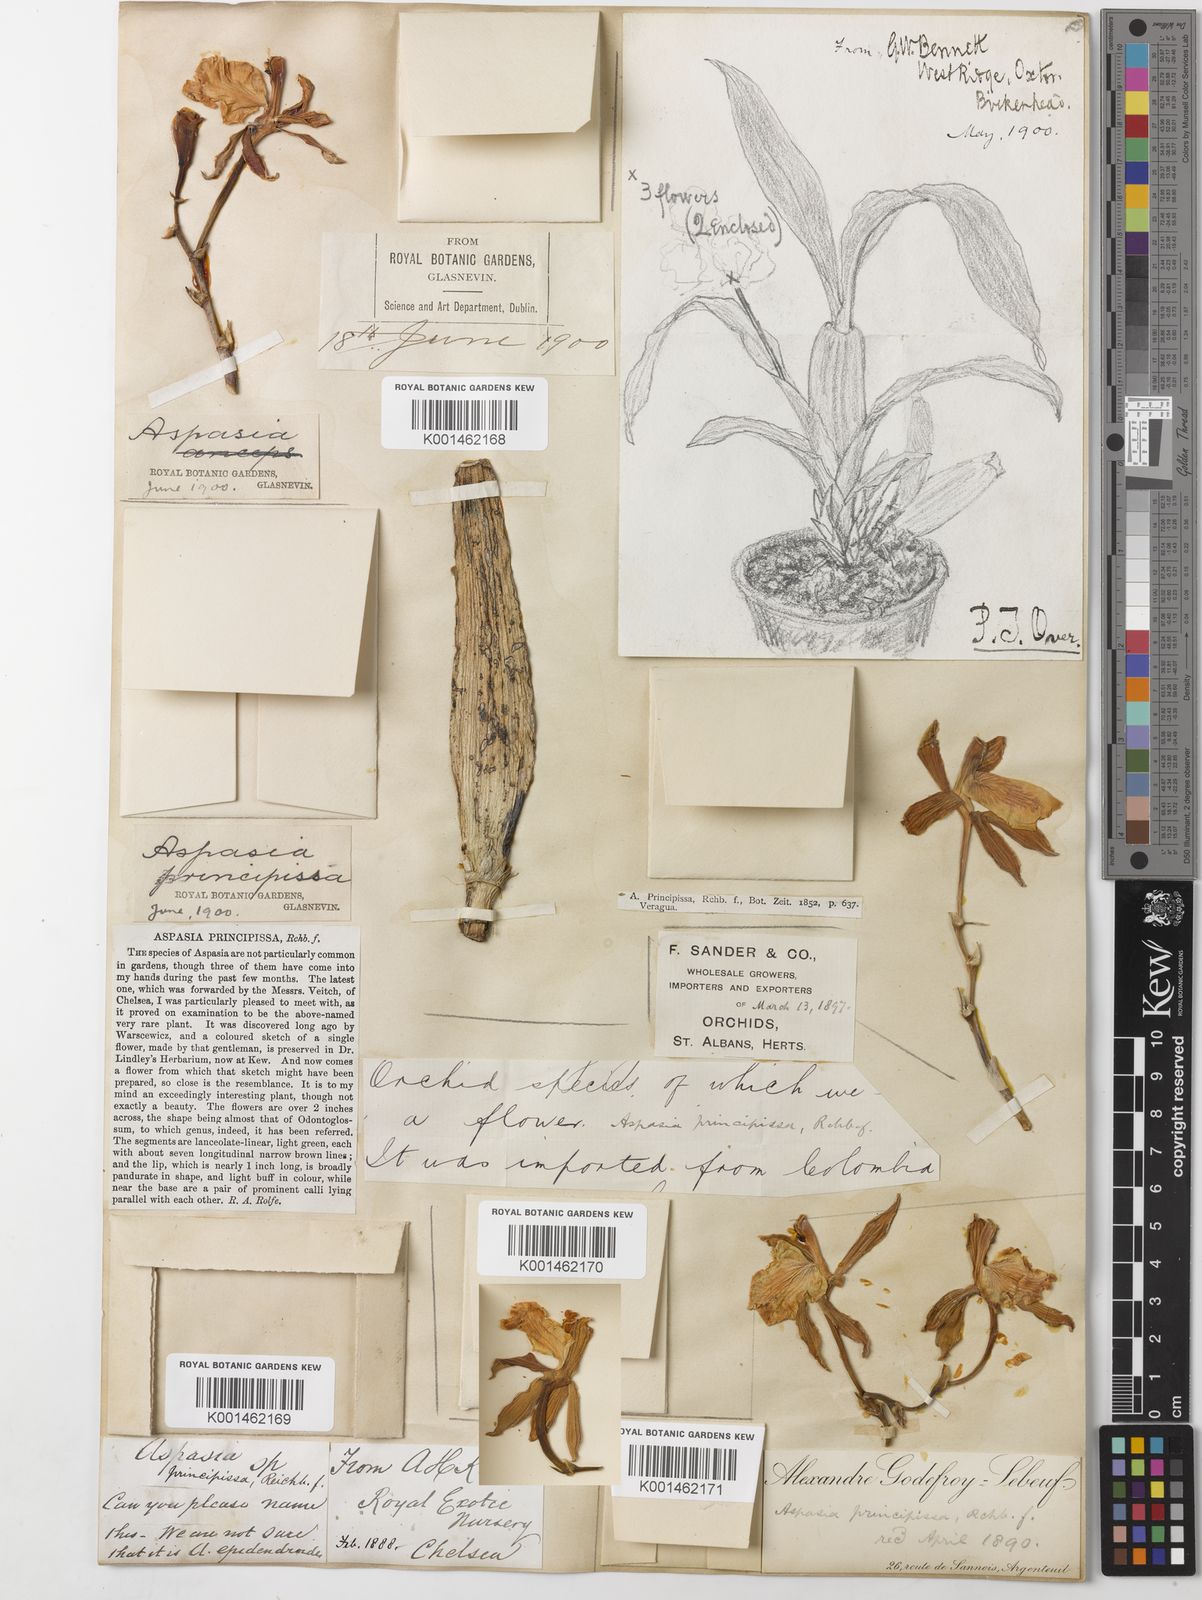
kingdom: Plantae
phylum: Tracheophyta
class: Liliopsida
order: Asparagales
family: Orchidaceae
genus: Aspasia
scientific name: Aspasia epidendroides
